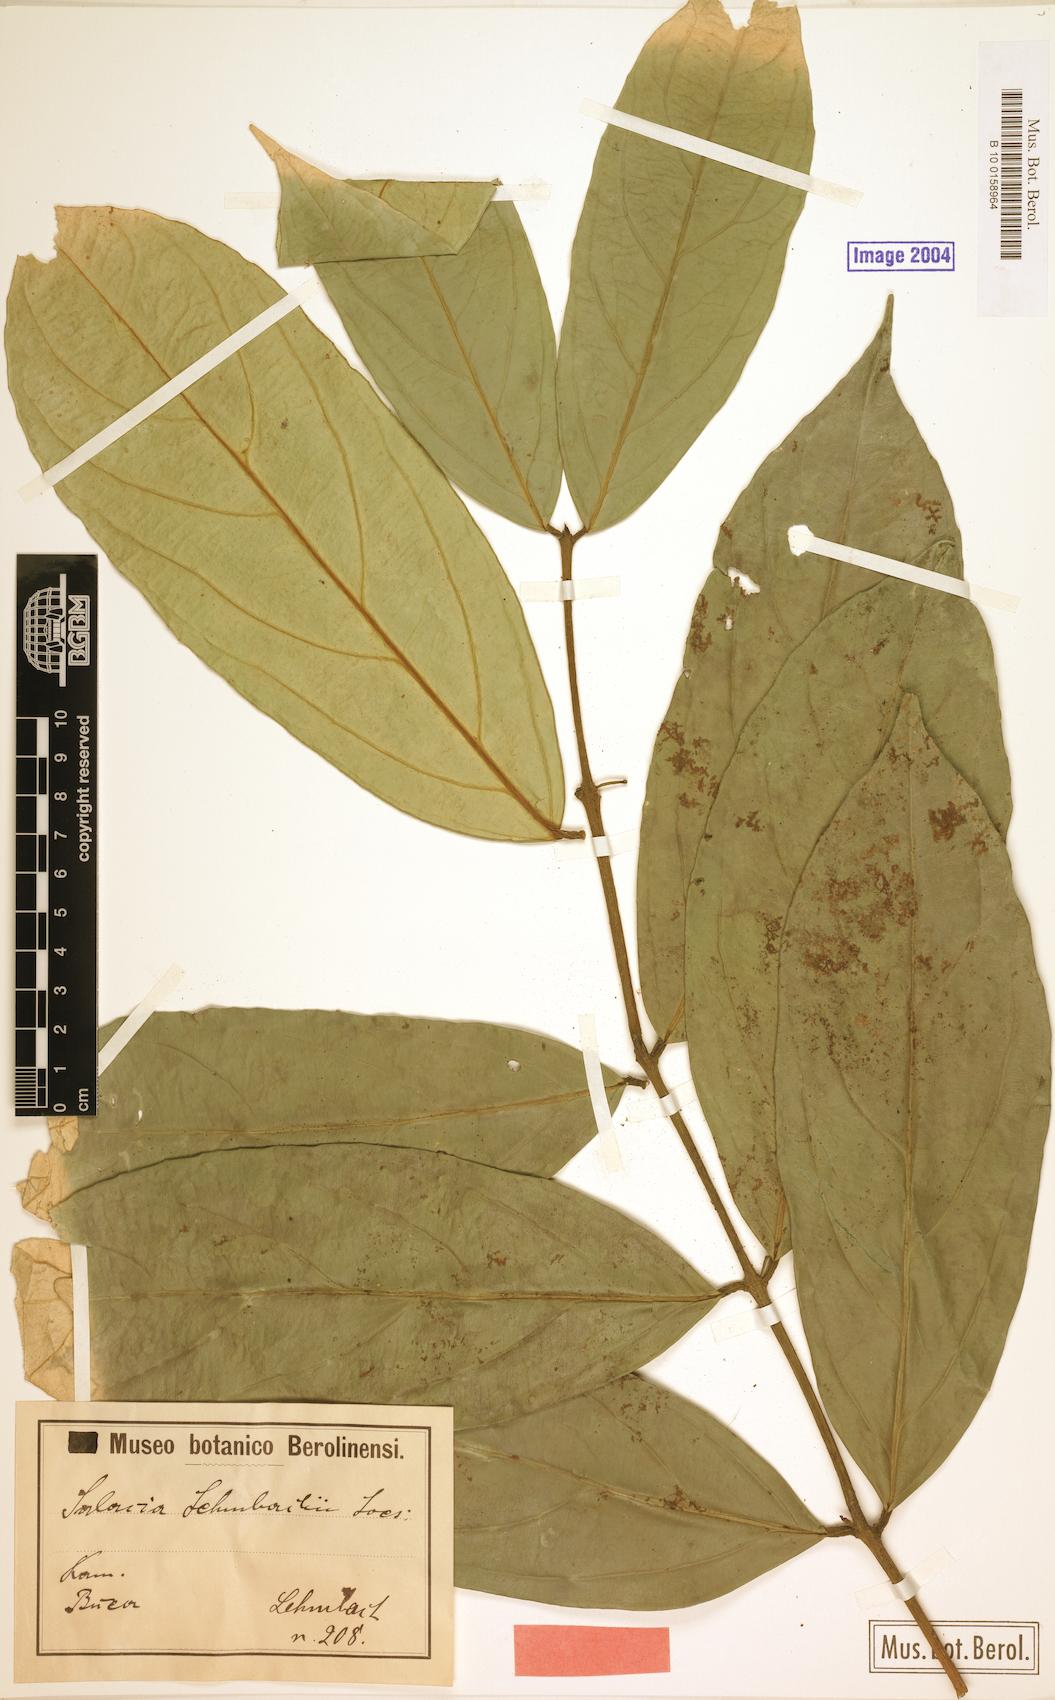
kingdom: Plantae
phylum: Tracheophyta
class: Magnoliopsida
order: Celastrales
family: Celastraceae
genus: Salacia
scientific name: Salacia lehmbachii
